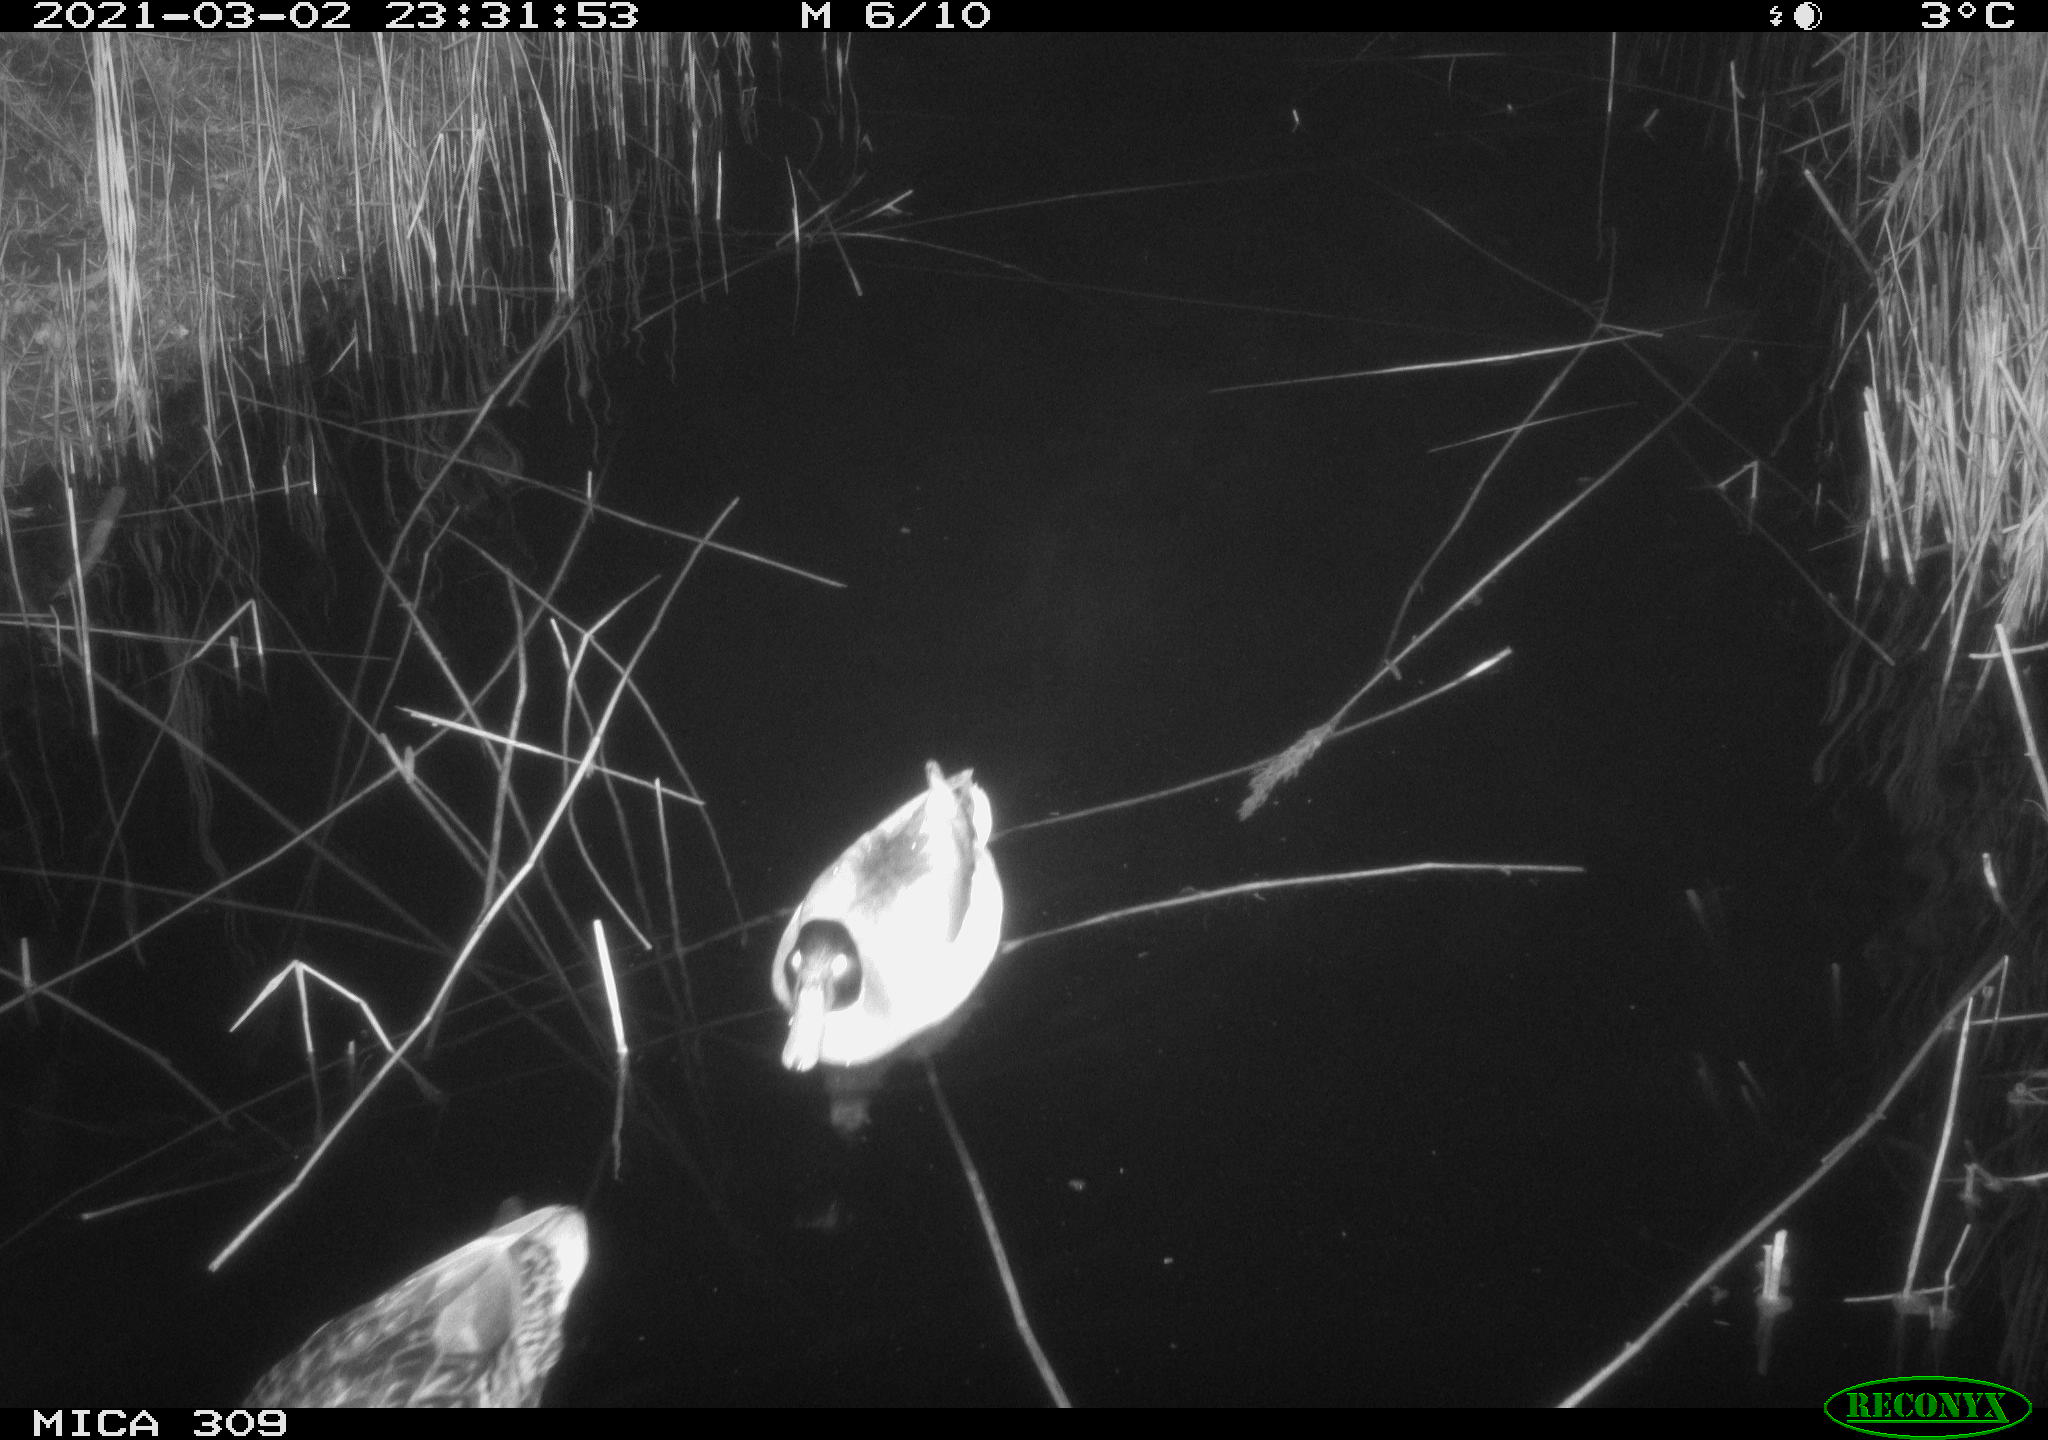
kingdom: Animalia
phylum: Chordata
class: Aves
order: Gruiformes
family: Rallidae
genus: Gallinula
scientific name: Gallinula chloropus
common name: Common moorhen
